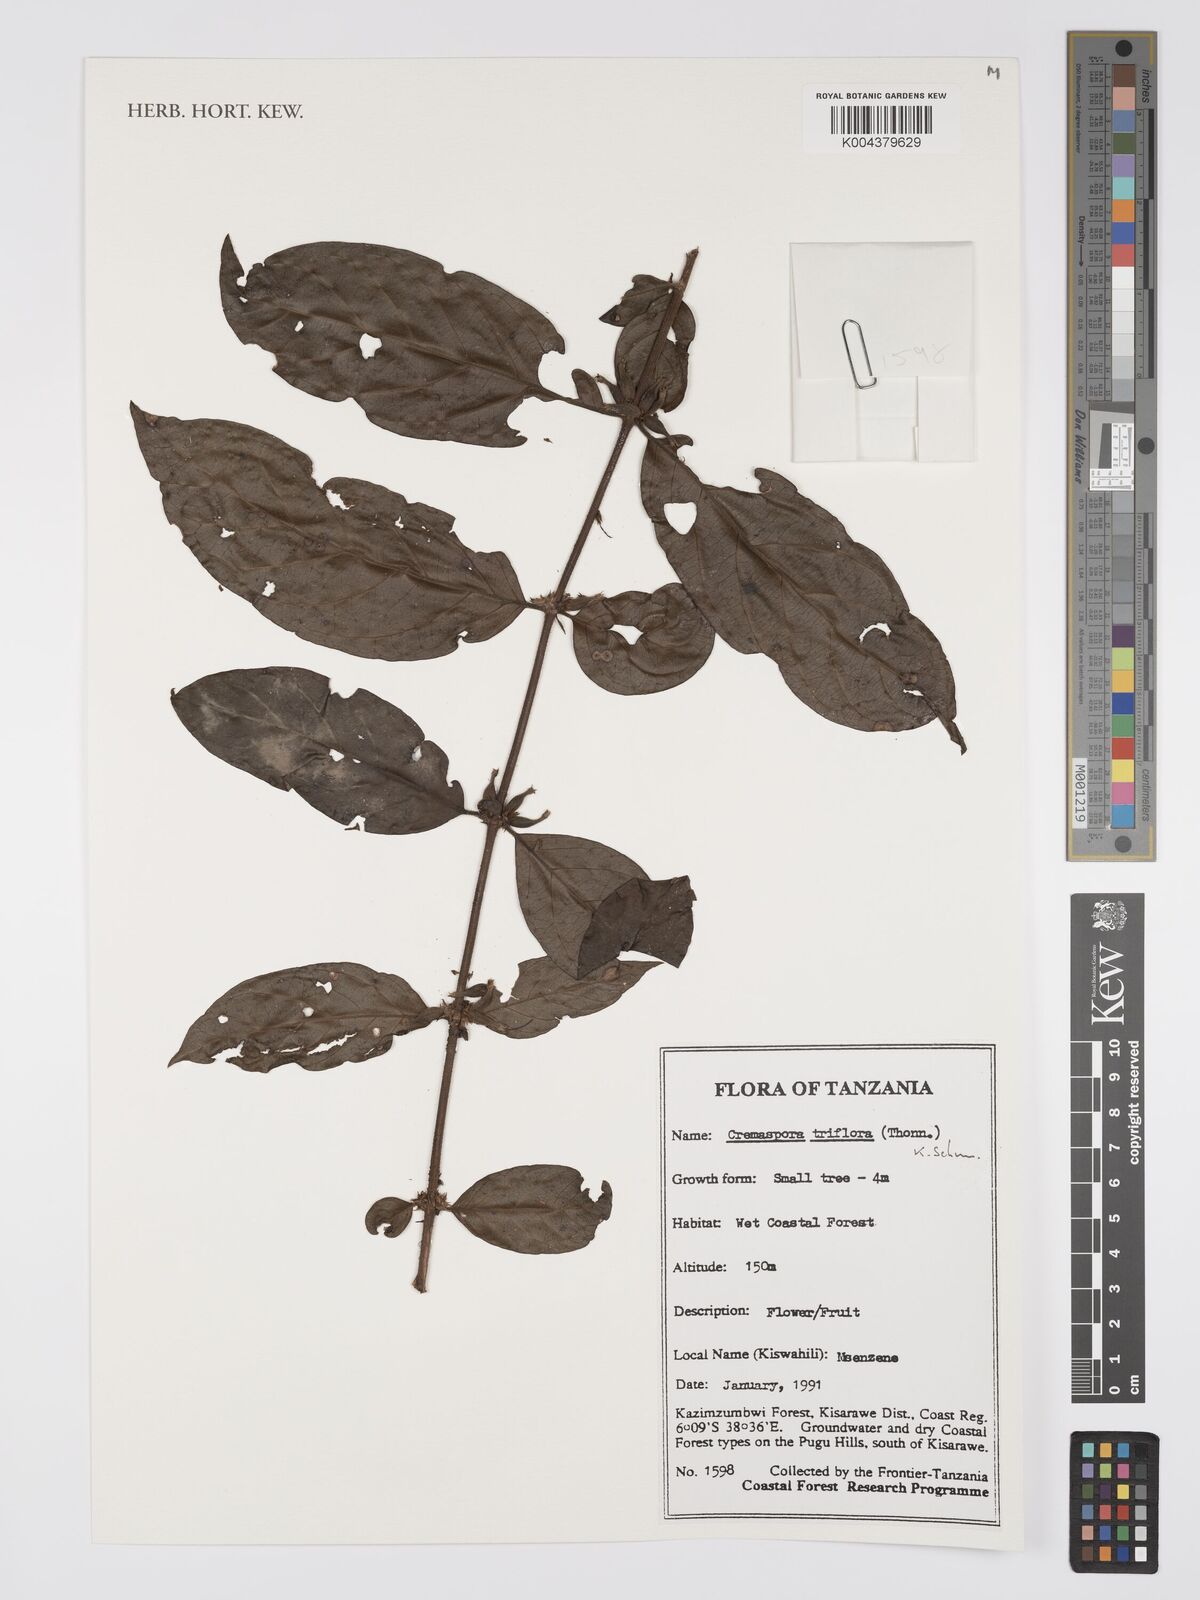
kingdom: Plantae
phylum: Tracheophyta
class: Magnoliopsida
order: Gentianales
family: Rubiaceae
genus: Cremaspora
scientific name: Cremaspora triflora
